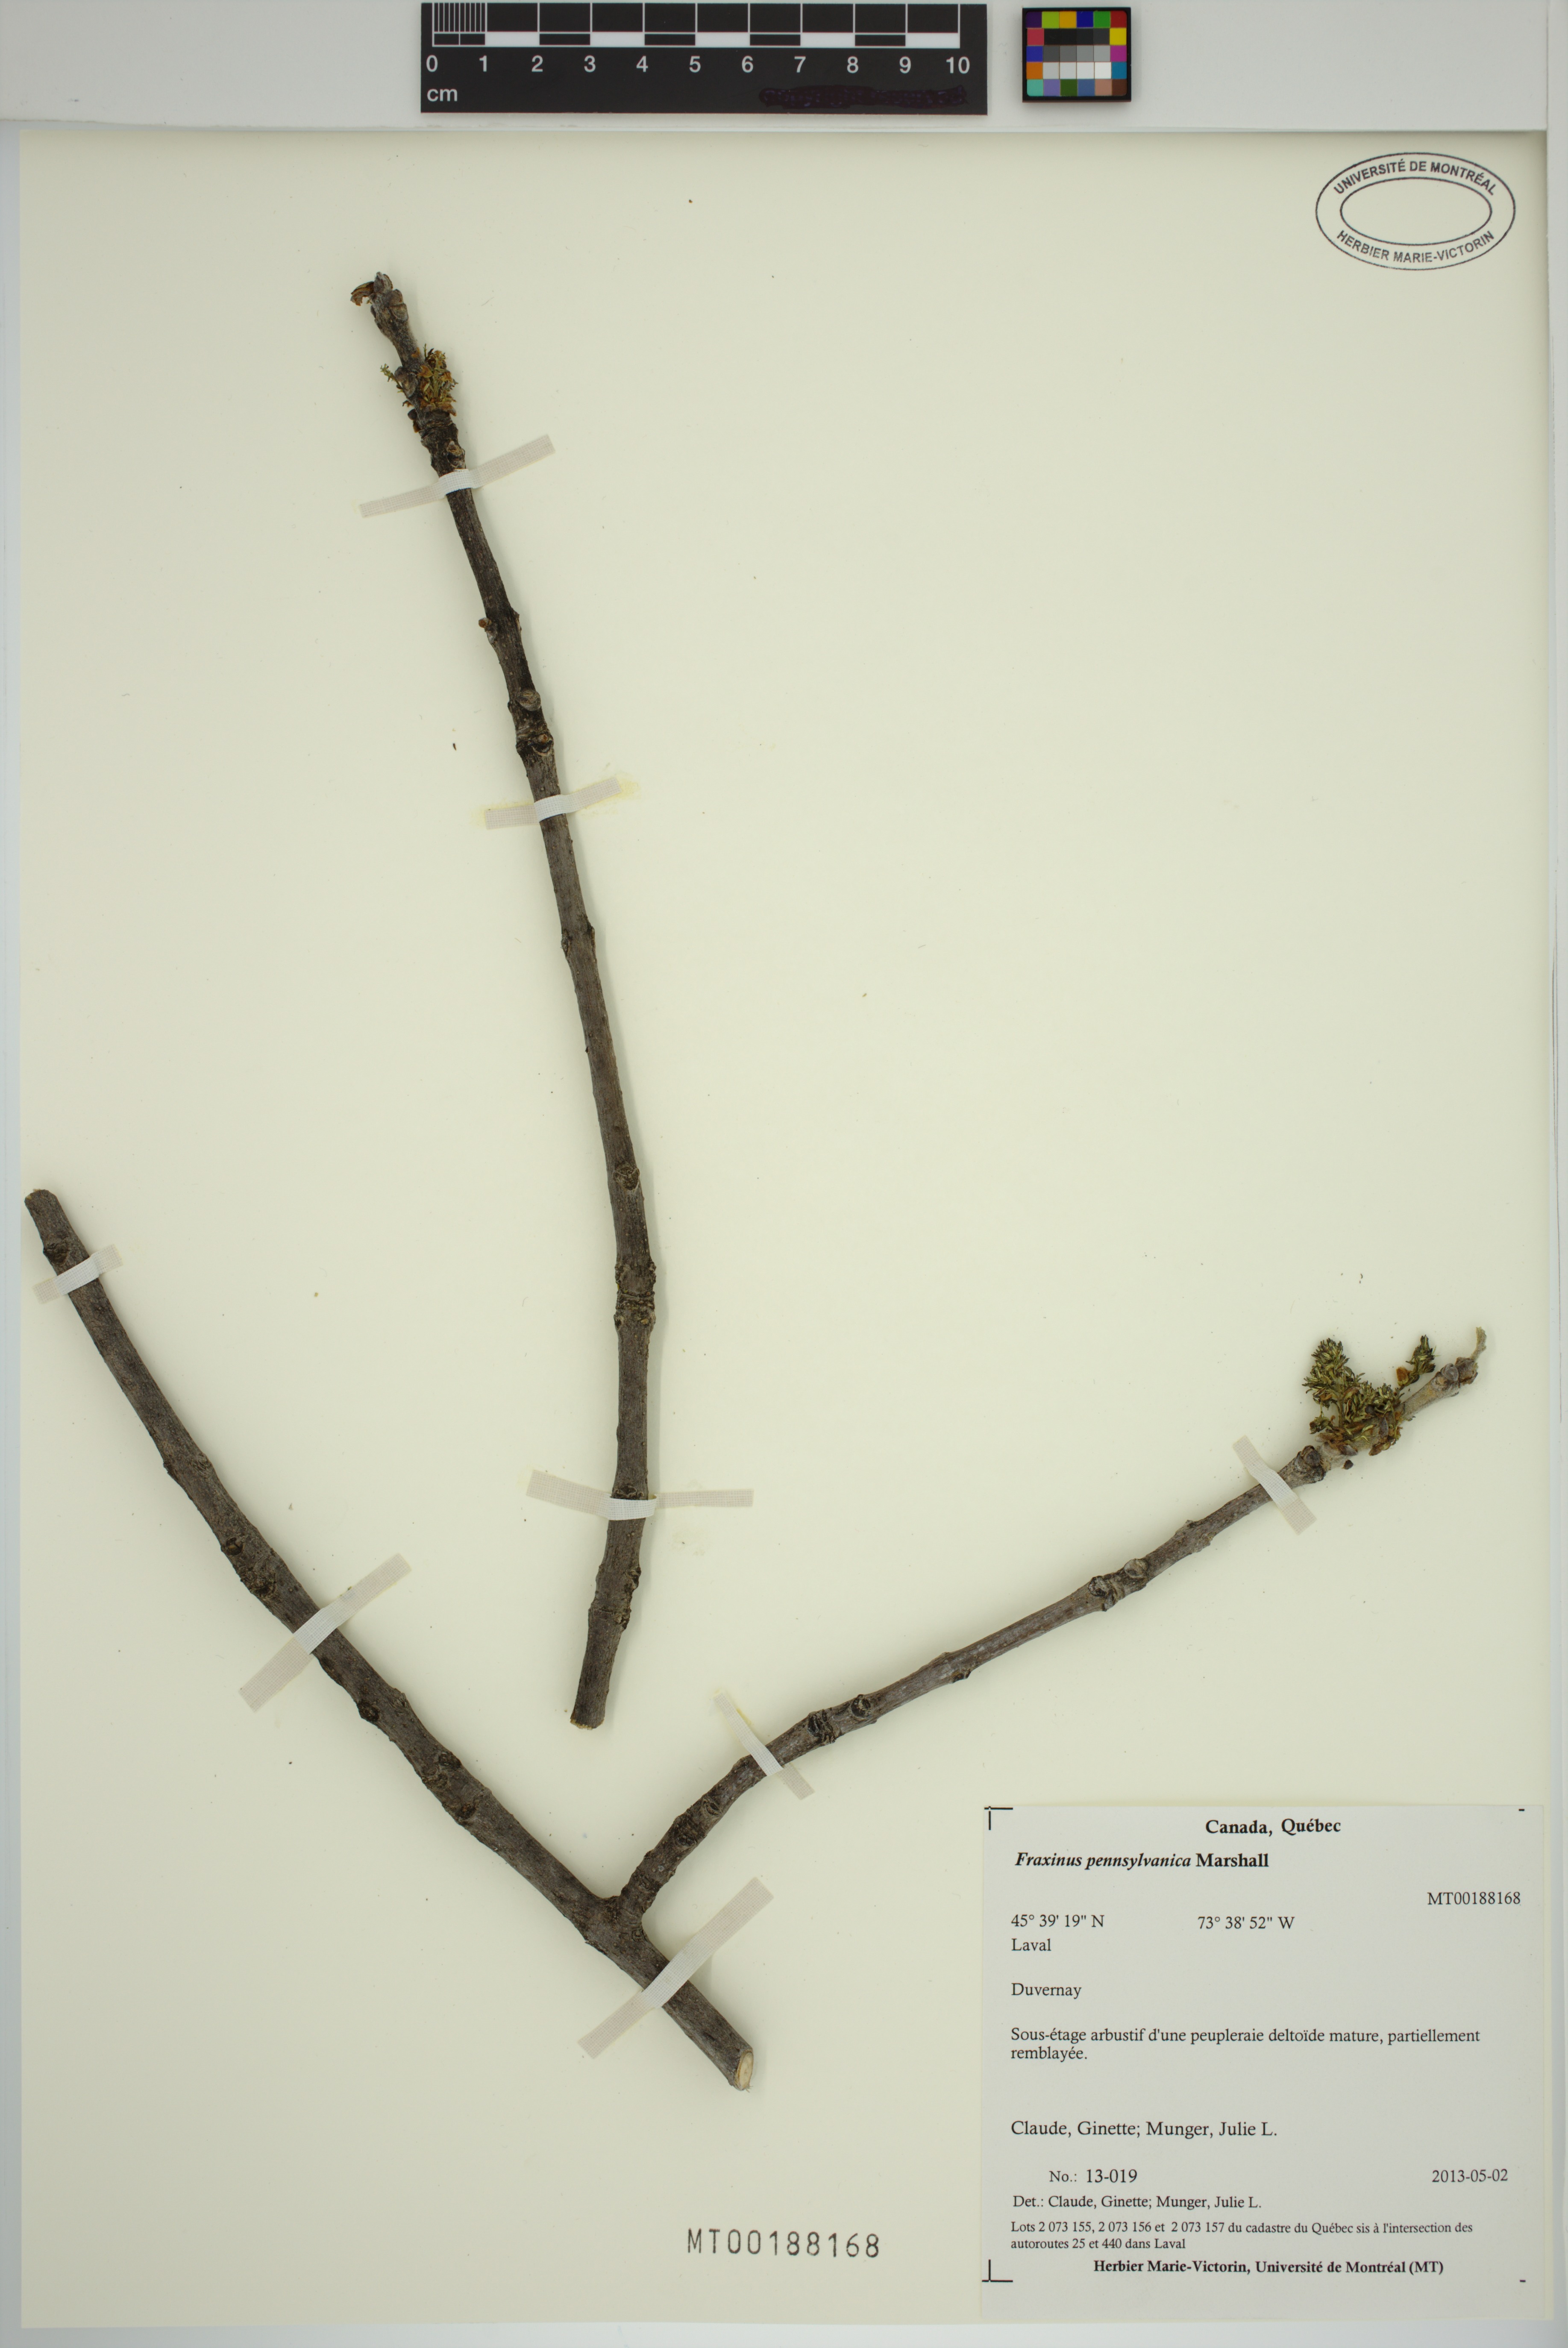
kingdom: Plantae
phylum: Tracheophyta
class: Magnoliopsida
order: Lamiales
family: Oleaceae
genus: Fraxinus
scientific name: Fraxinus pennsylvanica
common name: Green ash
